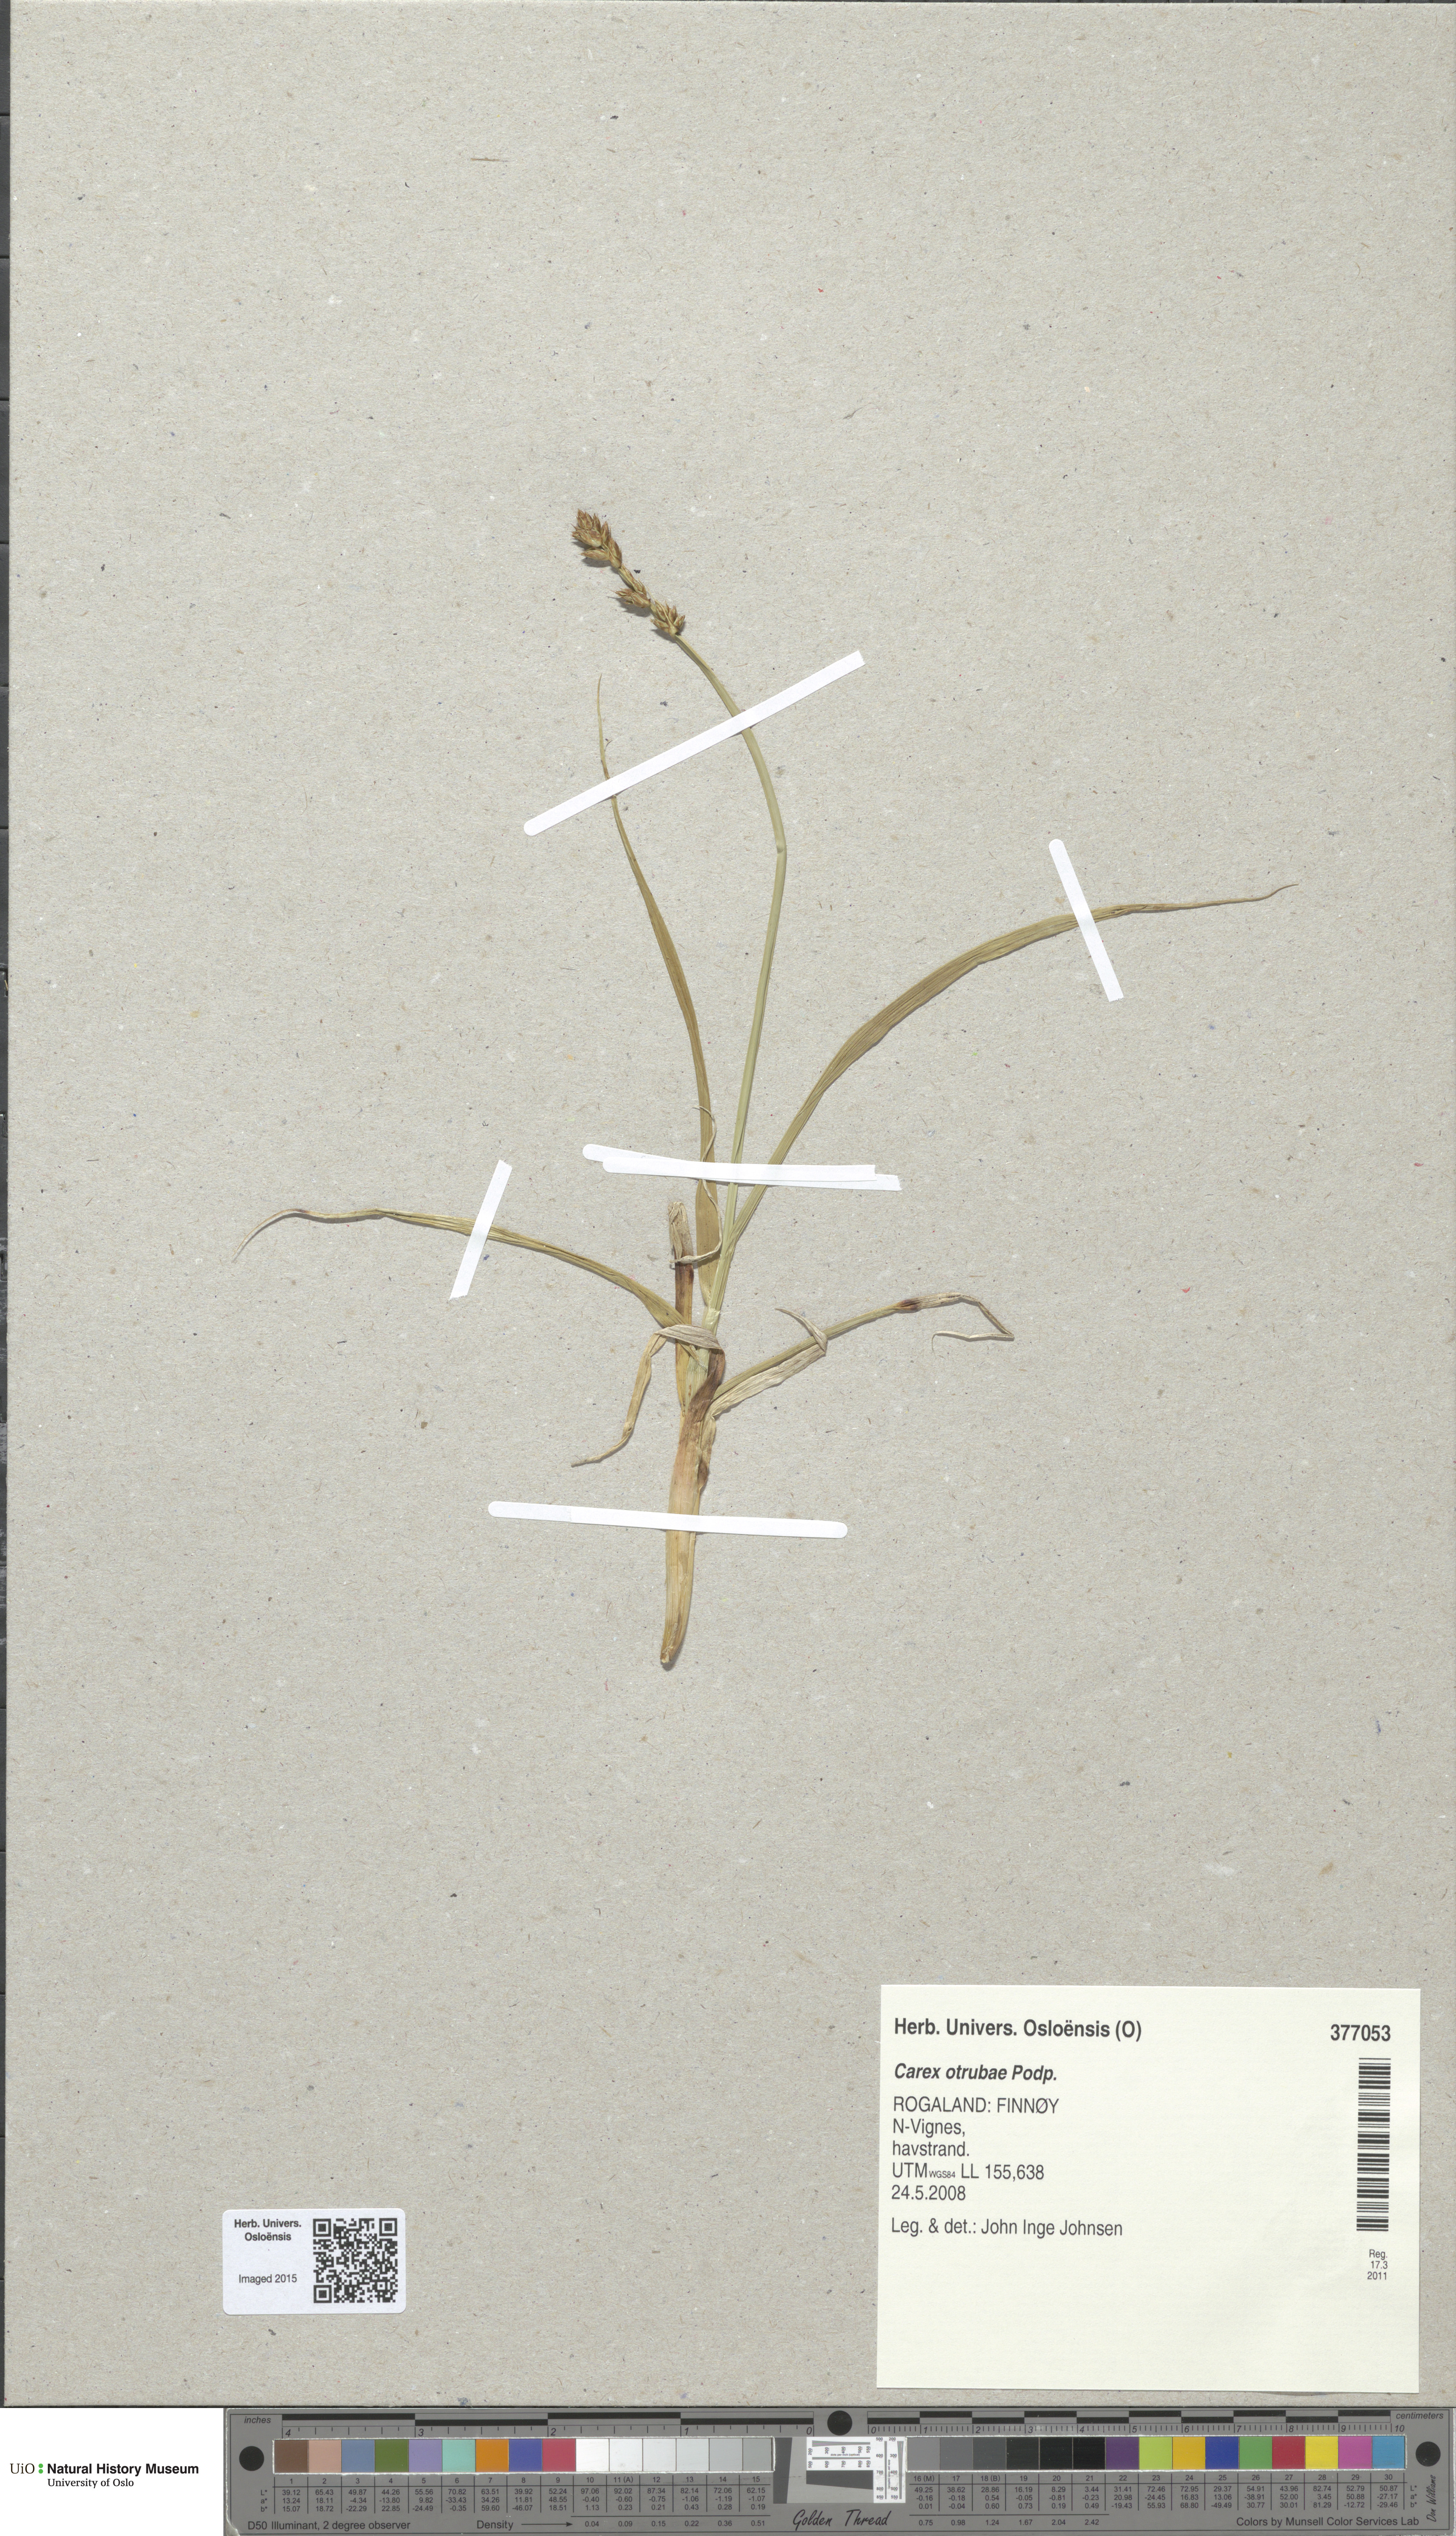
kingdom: Plantae
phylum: Tracheophyta
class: Liliopsida
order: Poales
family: Cyperaceae
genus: Carex
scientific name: Carex otrubae
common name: False fox-sedge
